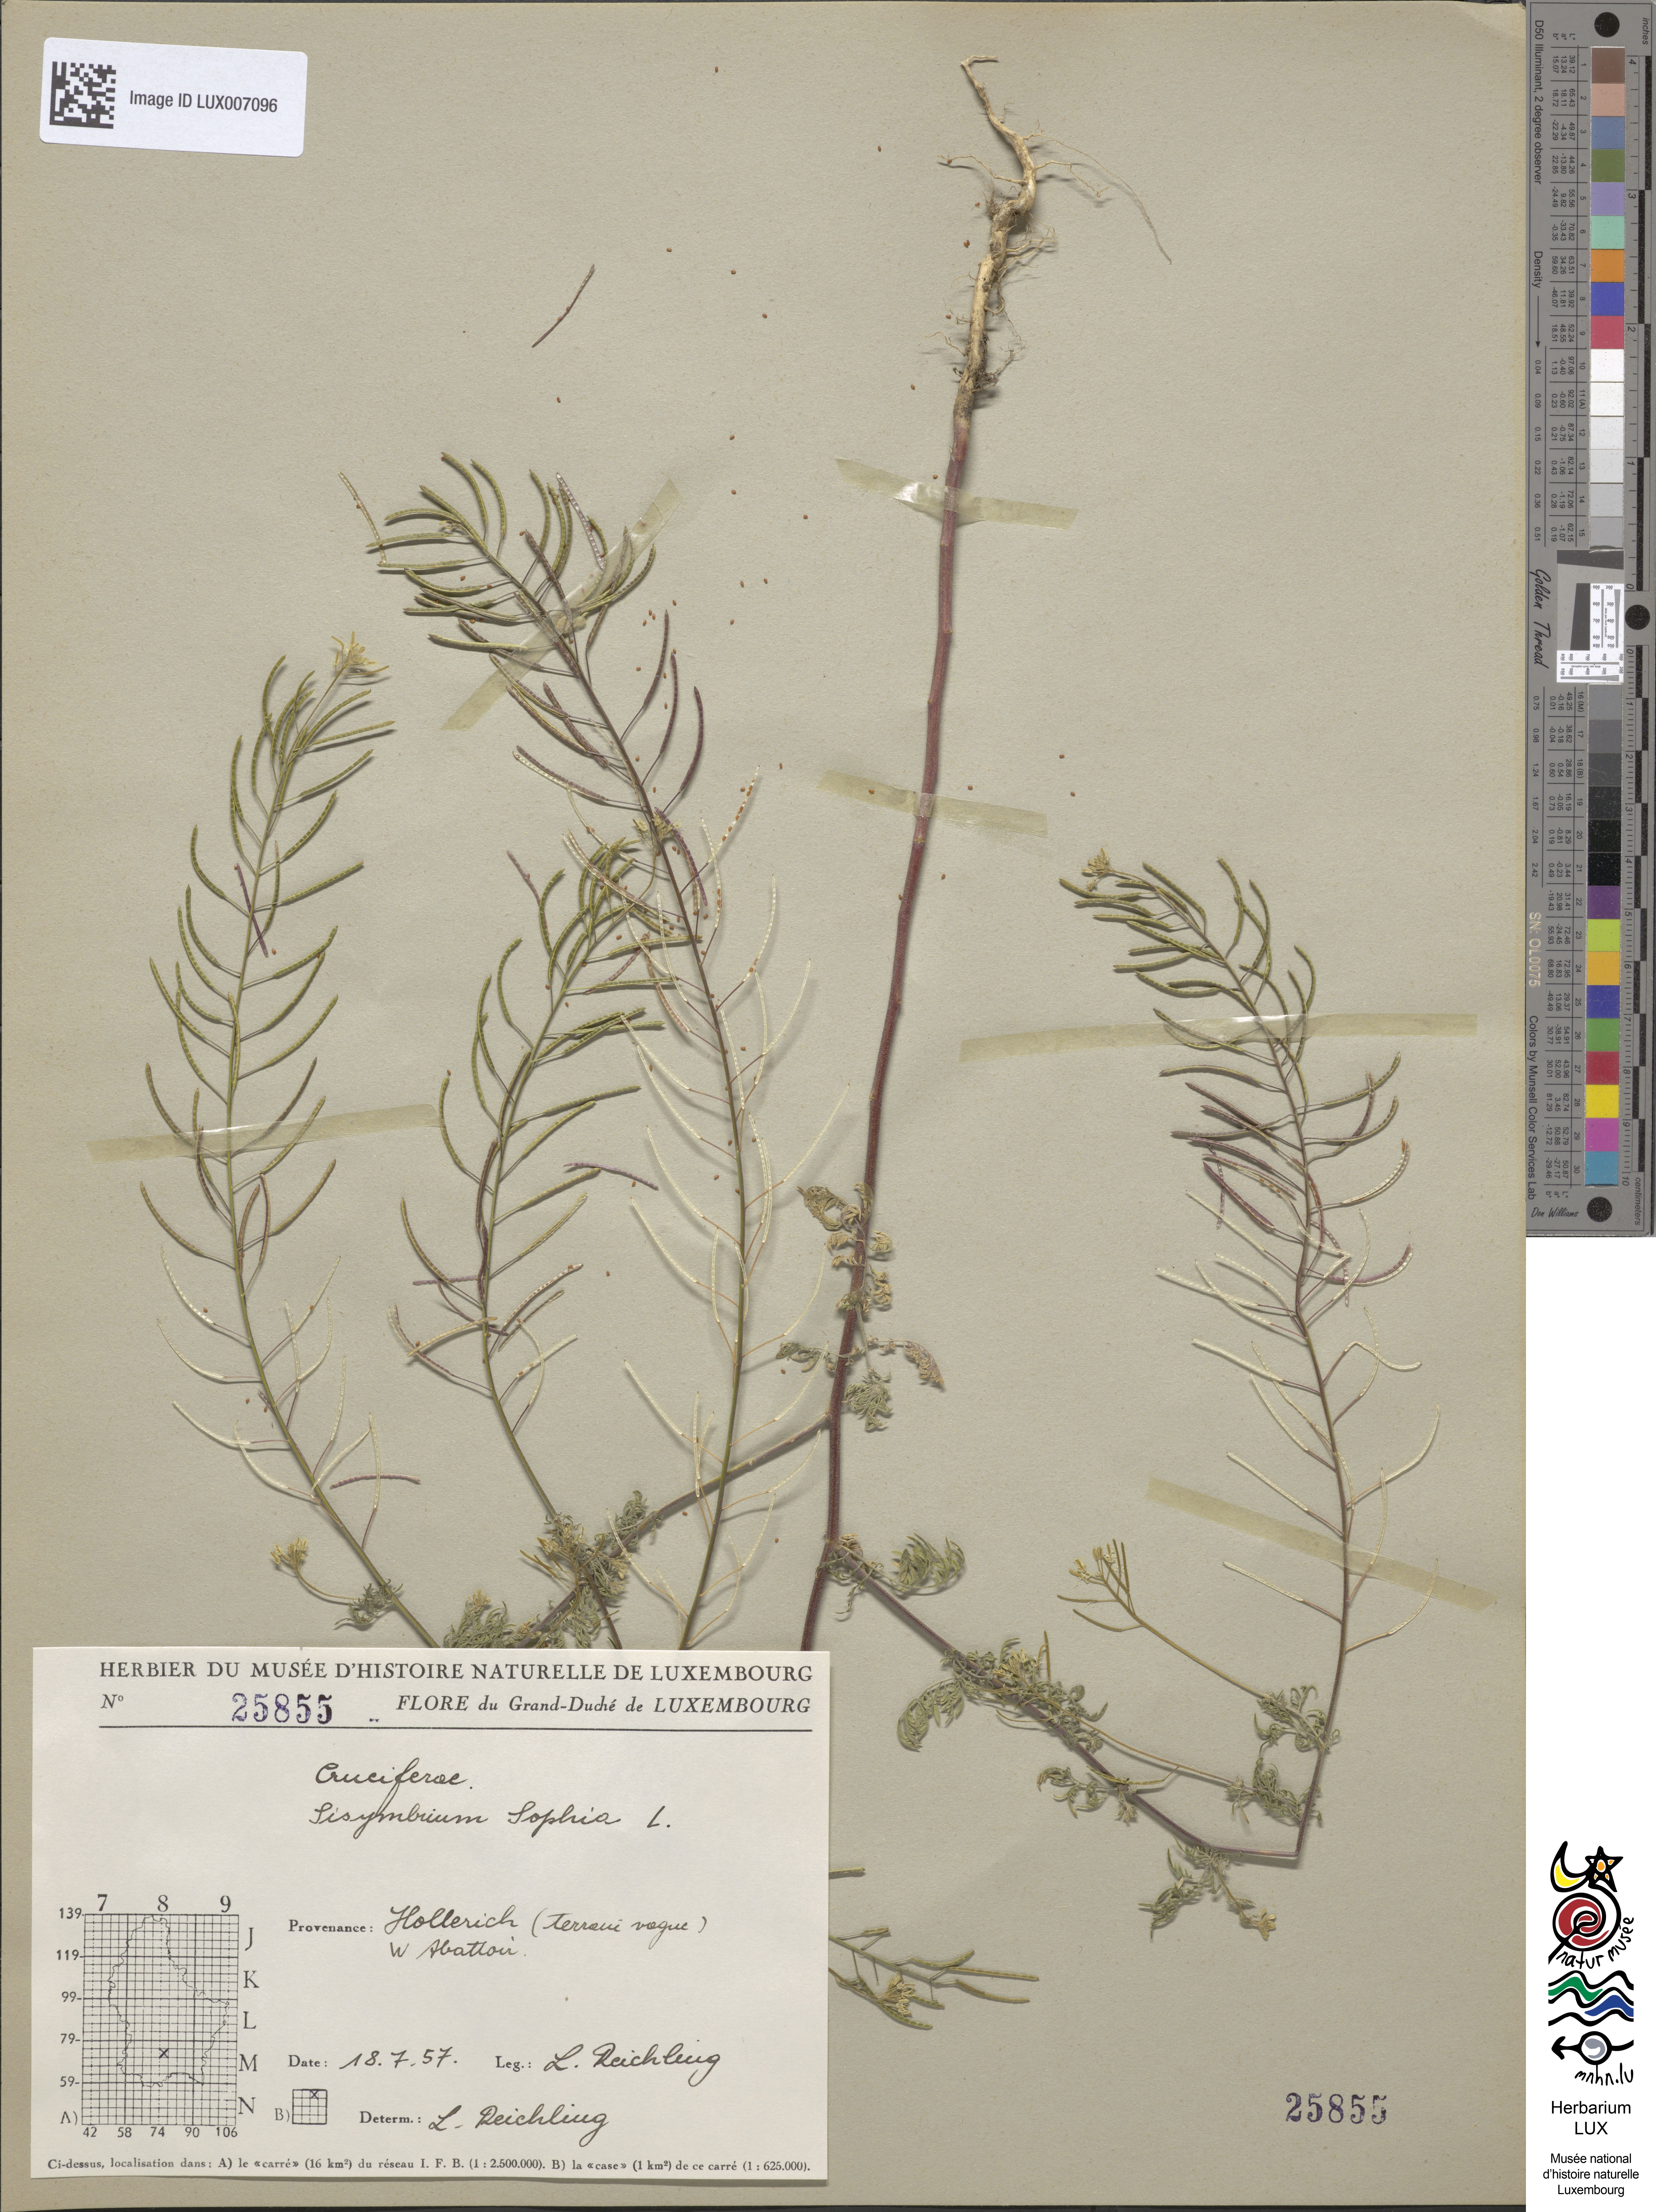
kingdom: Plantae
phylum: Tracheophyta
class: Magnoliopsida
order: Brassicales
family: Brassicaceae
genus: Descurainia
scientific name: Descurainia sophia
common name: Flixweed
